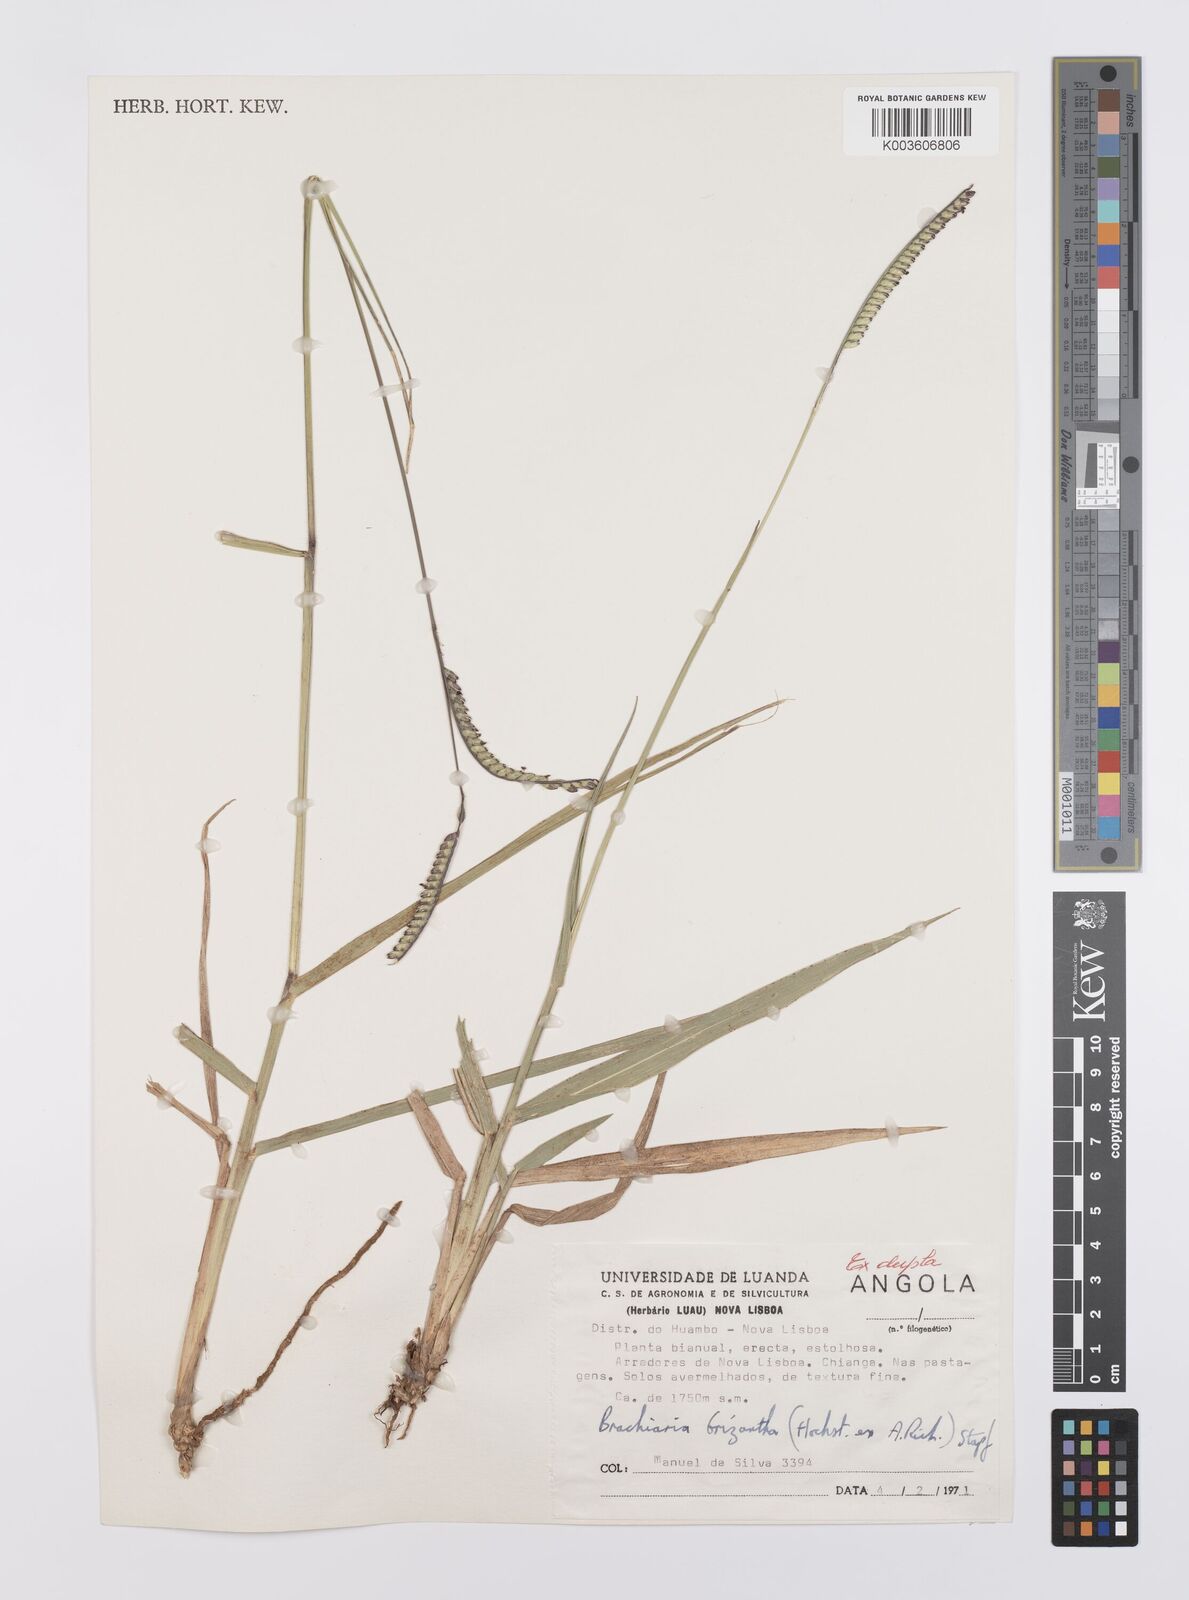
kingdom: Plantae
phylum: Tracheophyta
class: Liliopsida
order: Poales
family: Poaceae
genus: Urochloa
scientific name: Urochloa brizantha
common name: Palisade signalgrass
